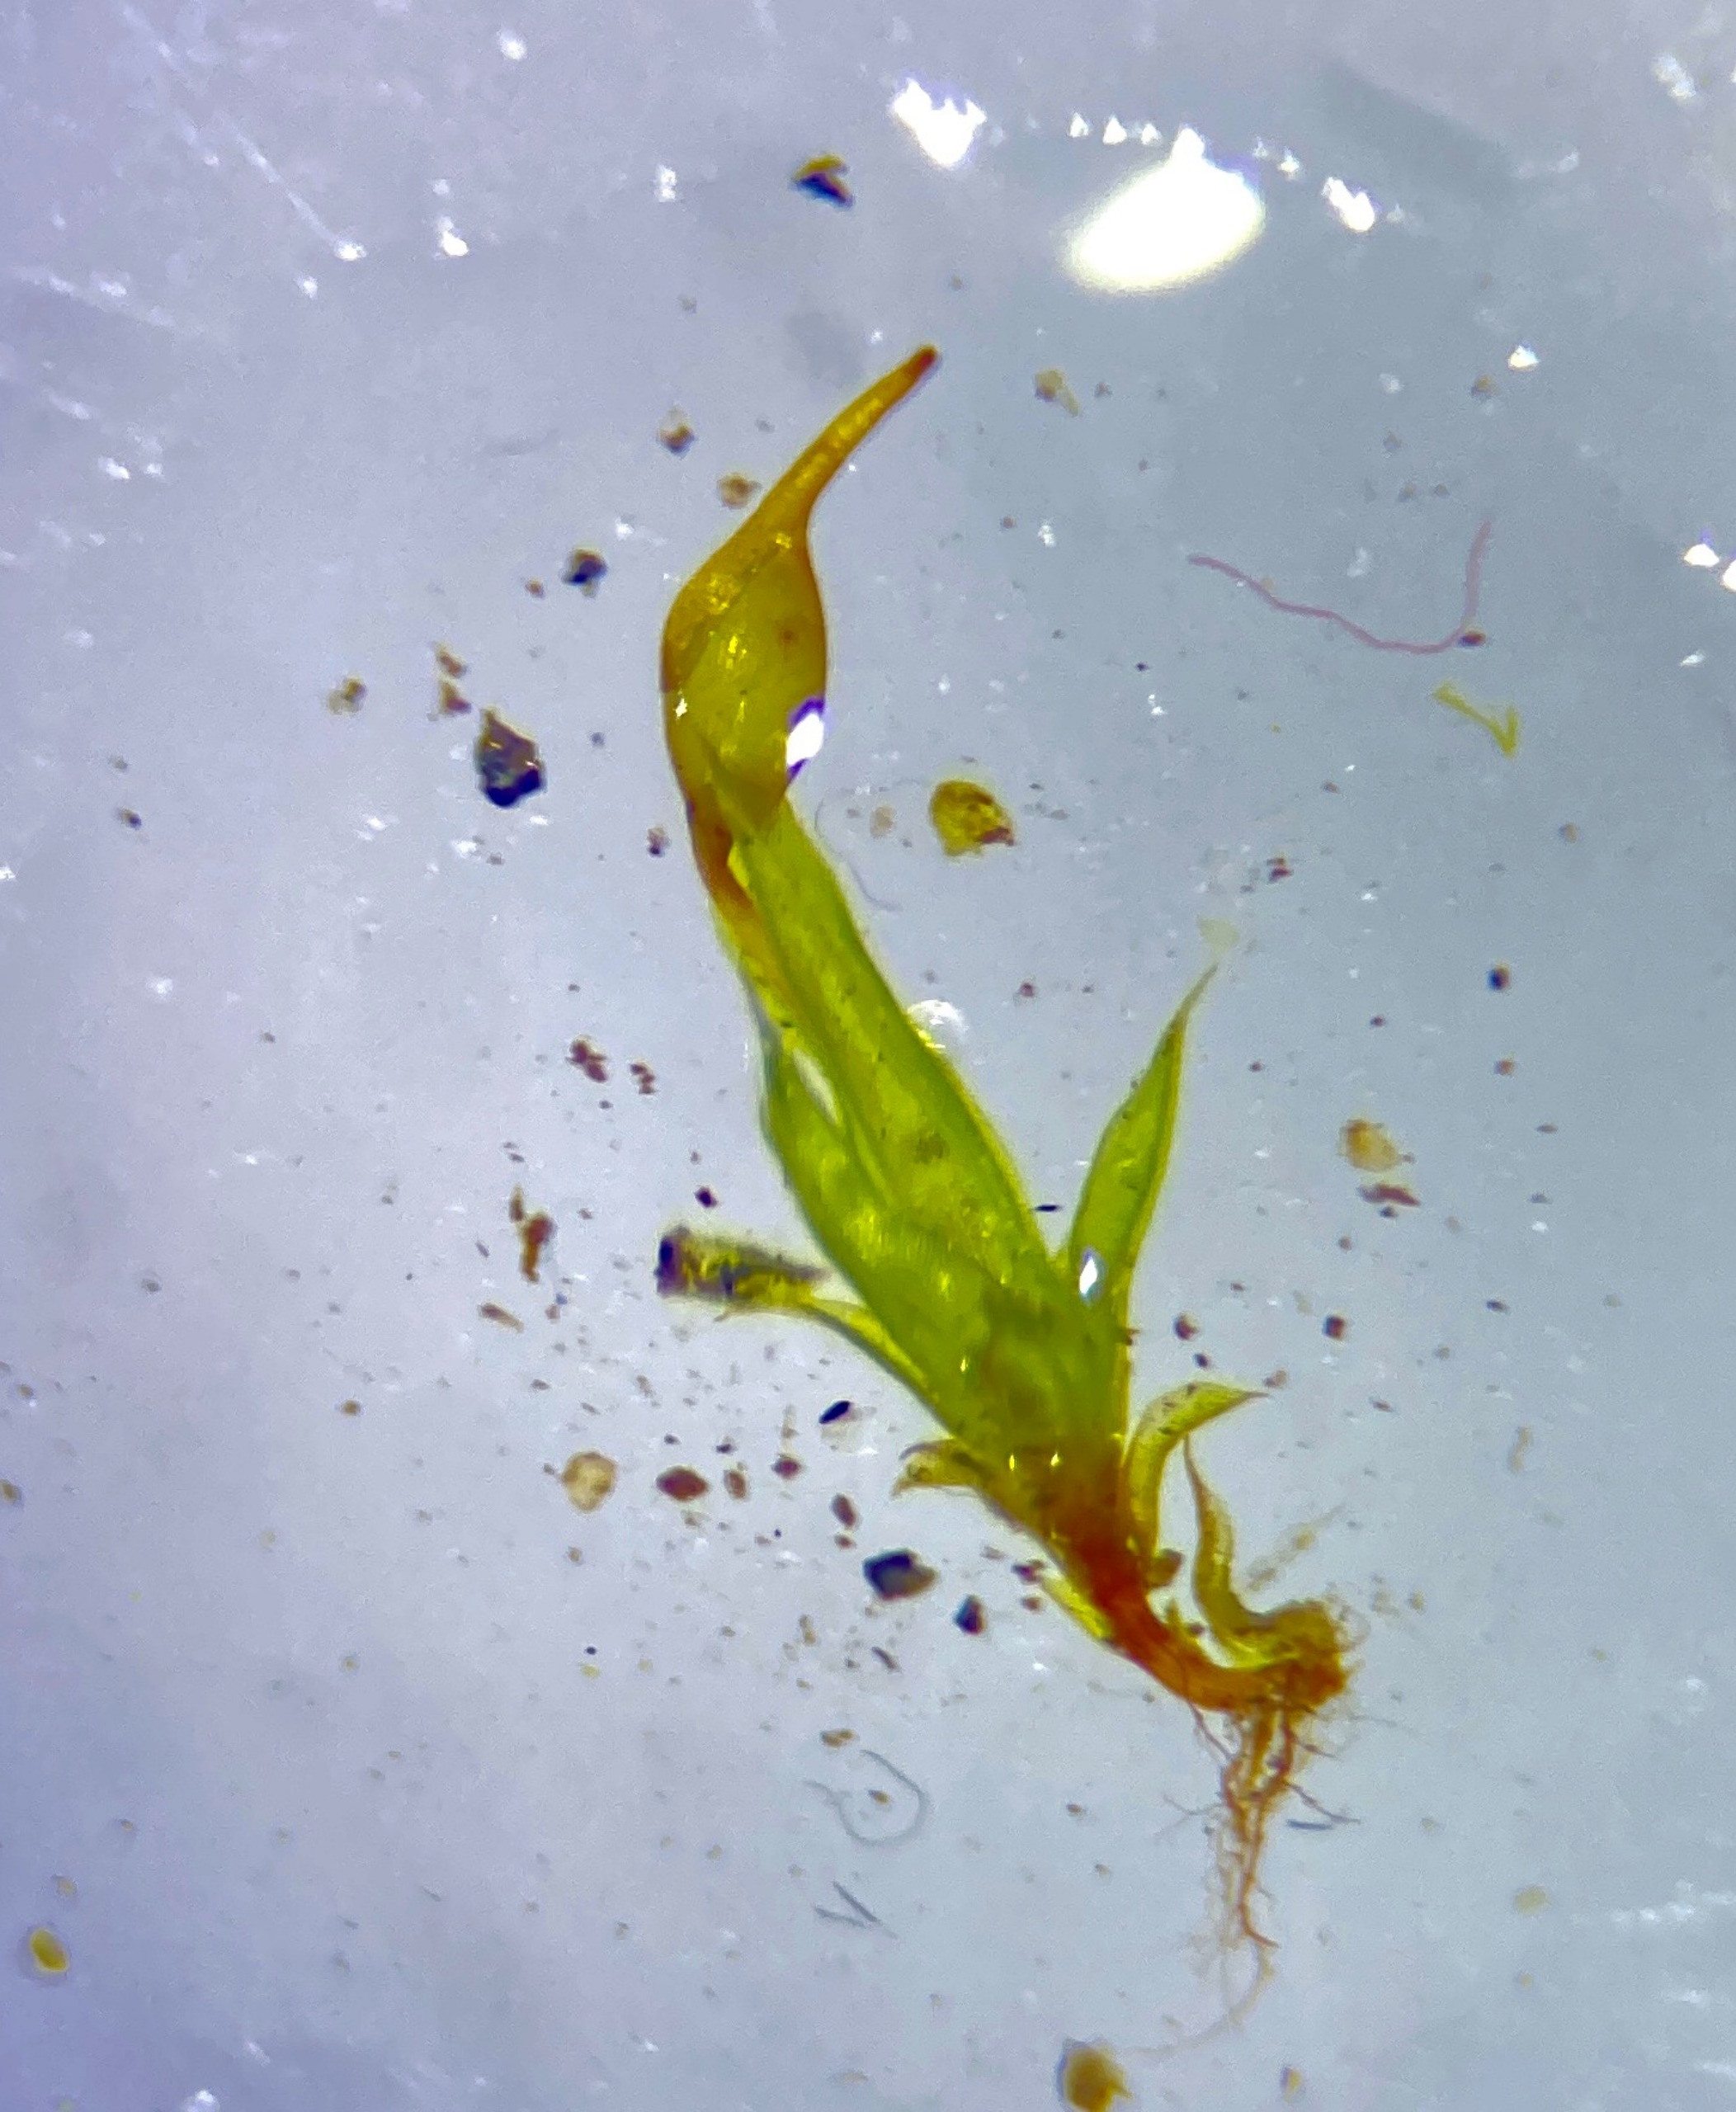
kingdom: Plantae
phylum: Bryophyta
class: Bryopsida
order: Pottiales
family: Pottiaceae
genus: Tortula
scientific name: Tortula protobryoides
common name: Lukket bægermos
